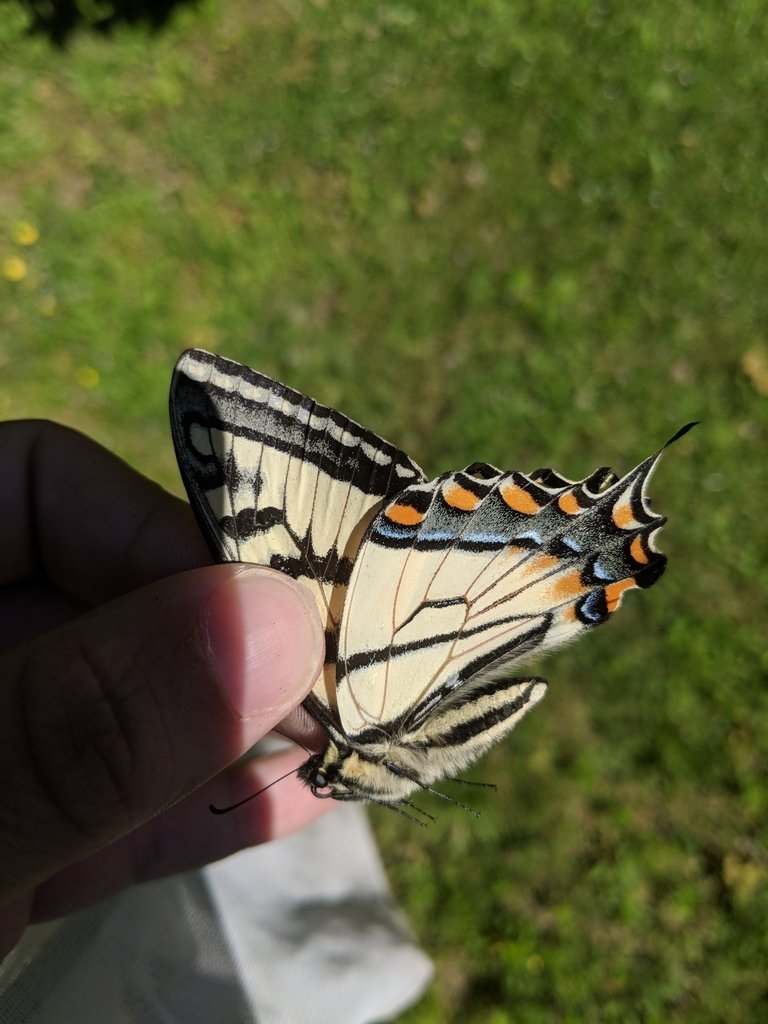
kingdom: Animalia
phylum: Arthropoda
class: Insecta
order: Lepidoptera
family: Papilionidae
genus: Pterourus
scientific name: Pterourus canadensis
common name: Canadian Tiger Swallowtail
